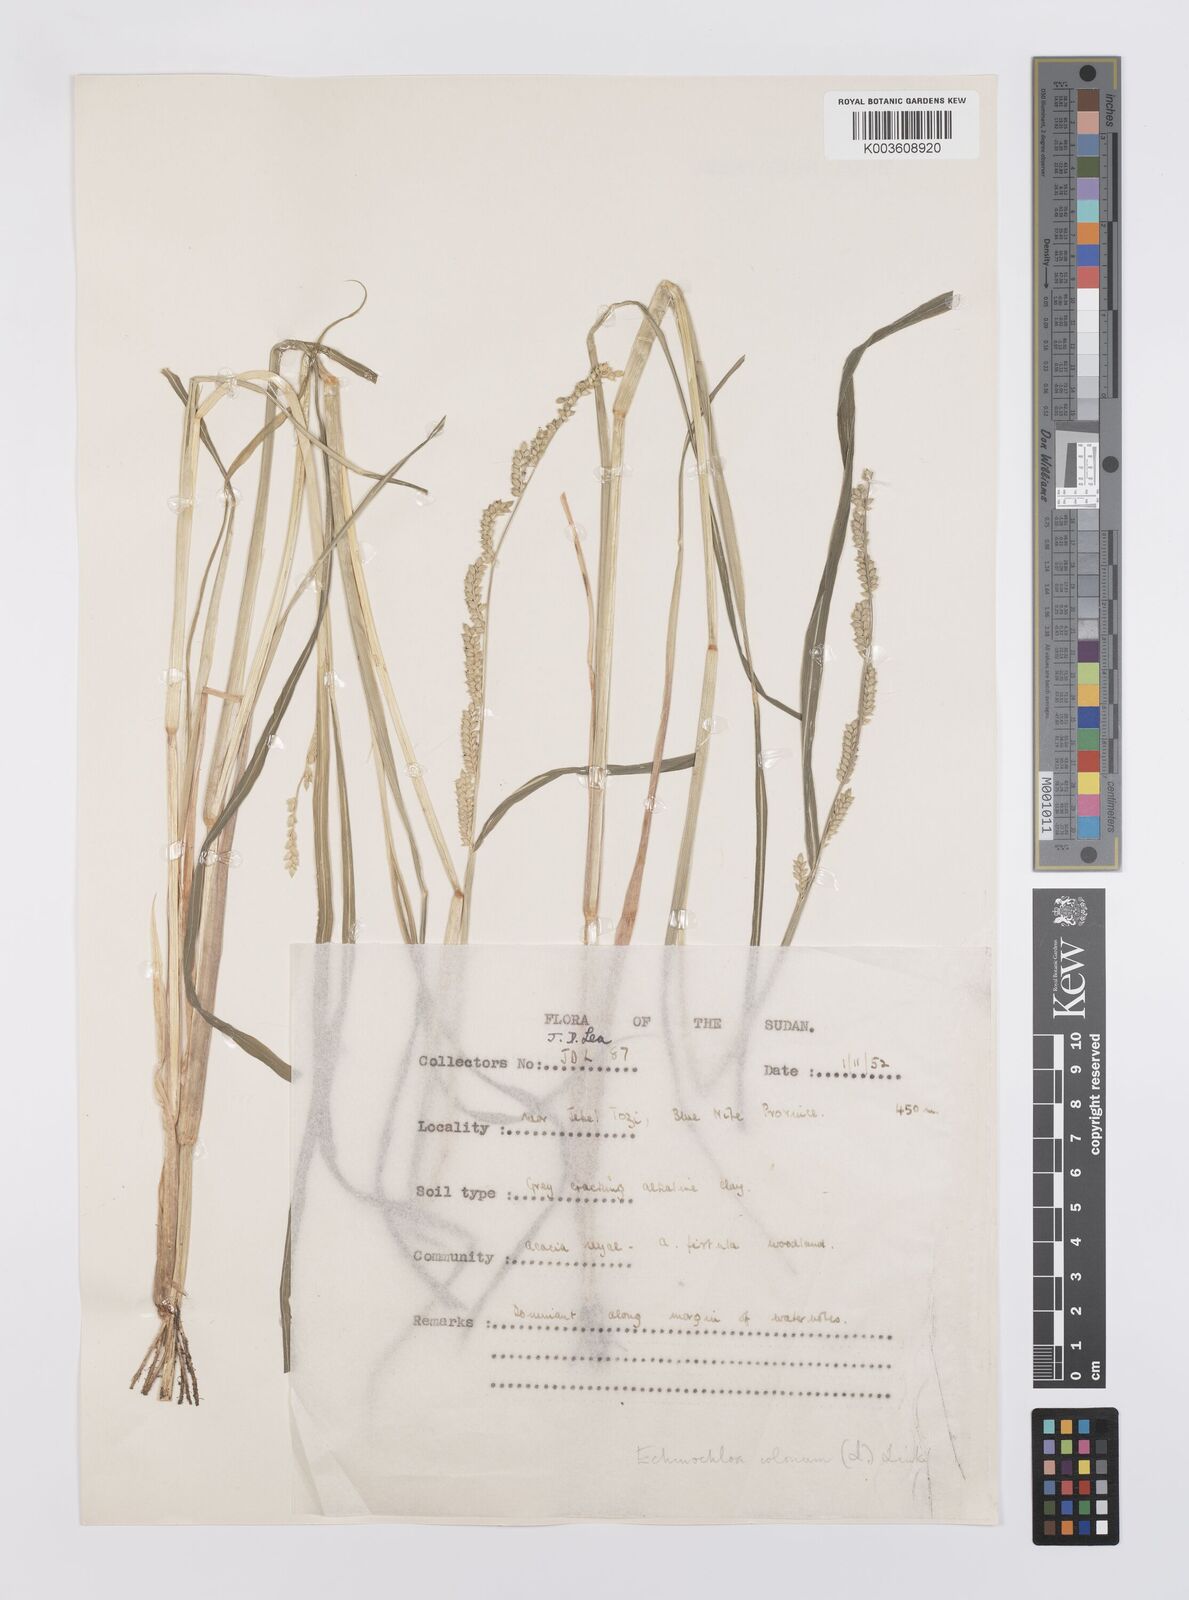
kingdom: Plantae
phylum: Tracheophyta
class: Liliopsida
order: Poales
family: Poaceae
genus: Echinochloa
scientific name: Echinochloa colonum
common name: Jungle rice
